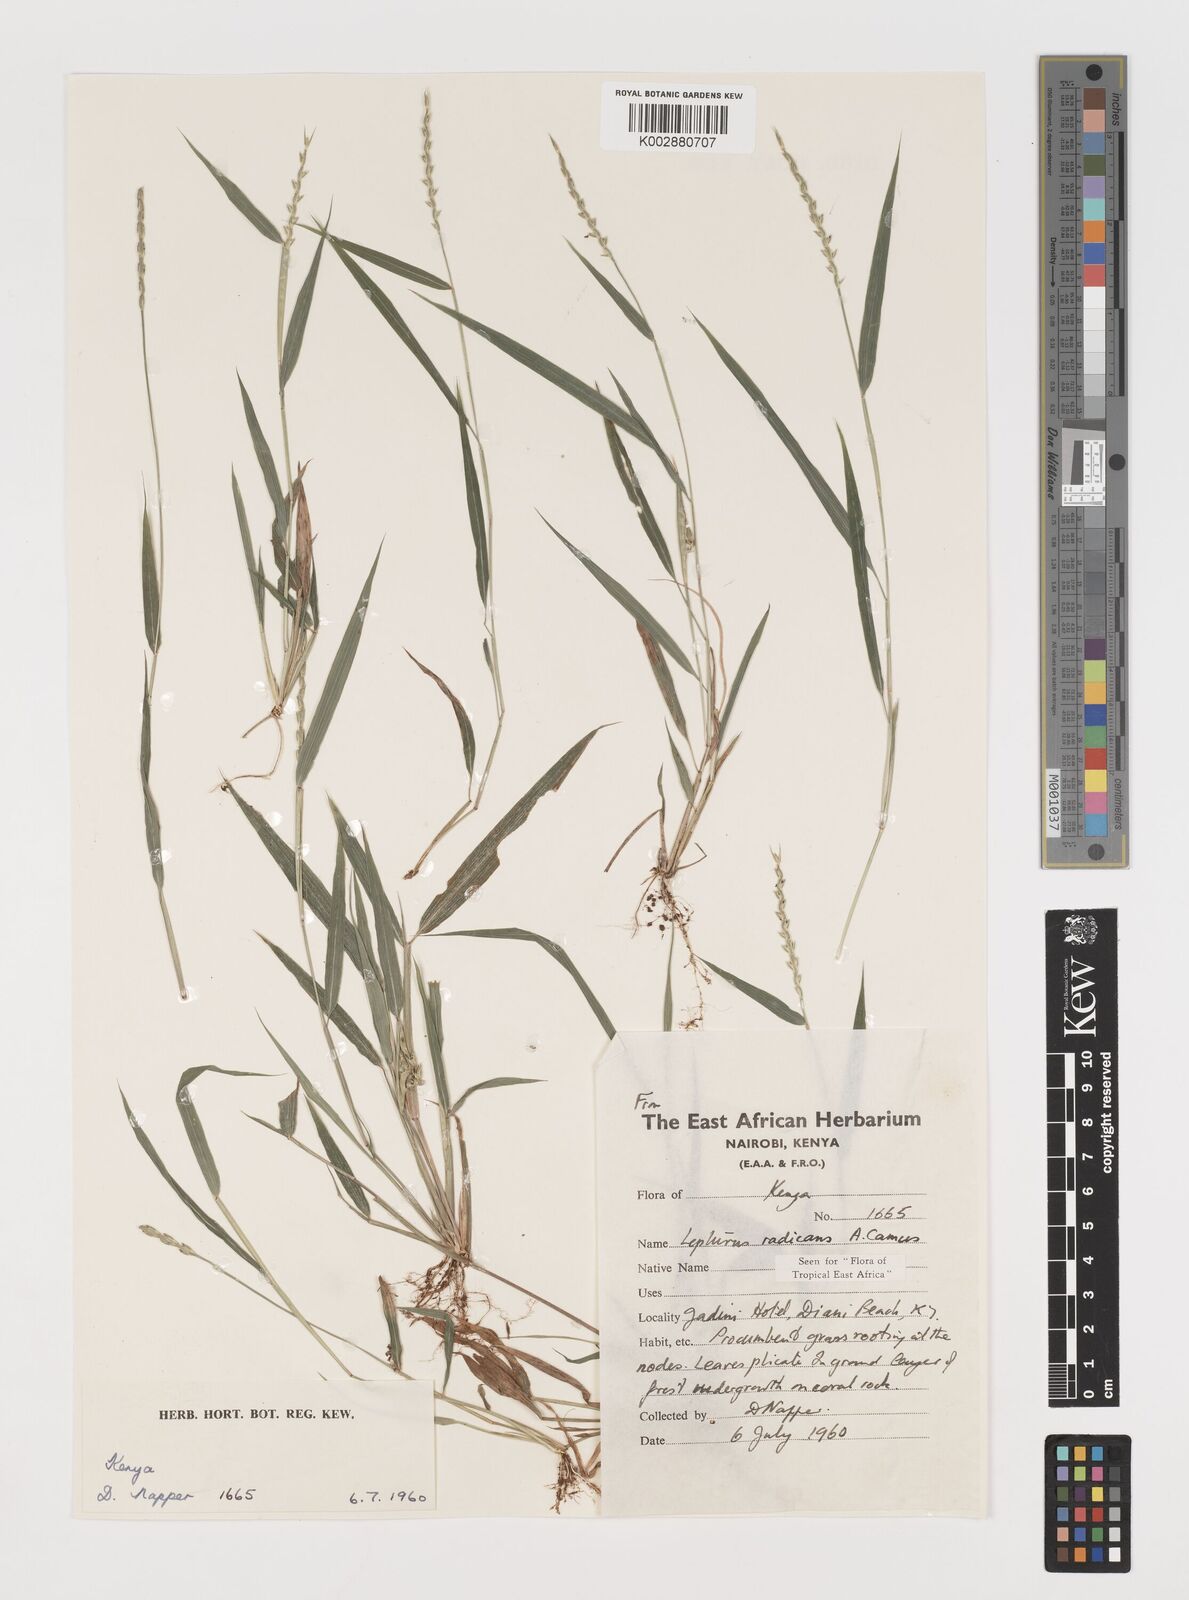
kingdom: Plantae
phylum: Tracheophyta
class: Liliopsida
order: Poales
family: Poaceae
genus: Lepturus
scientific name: Lepturus radicans
